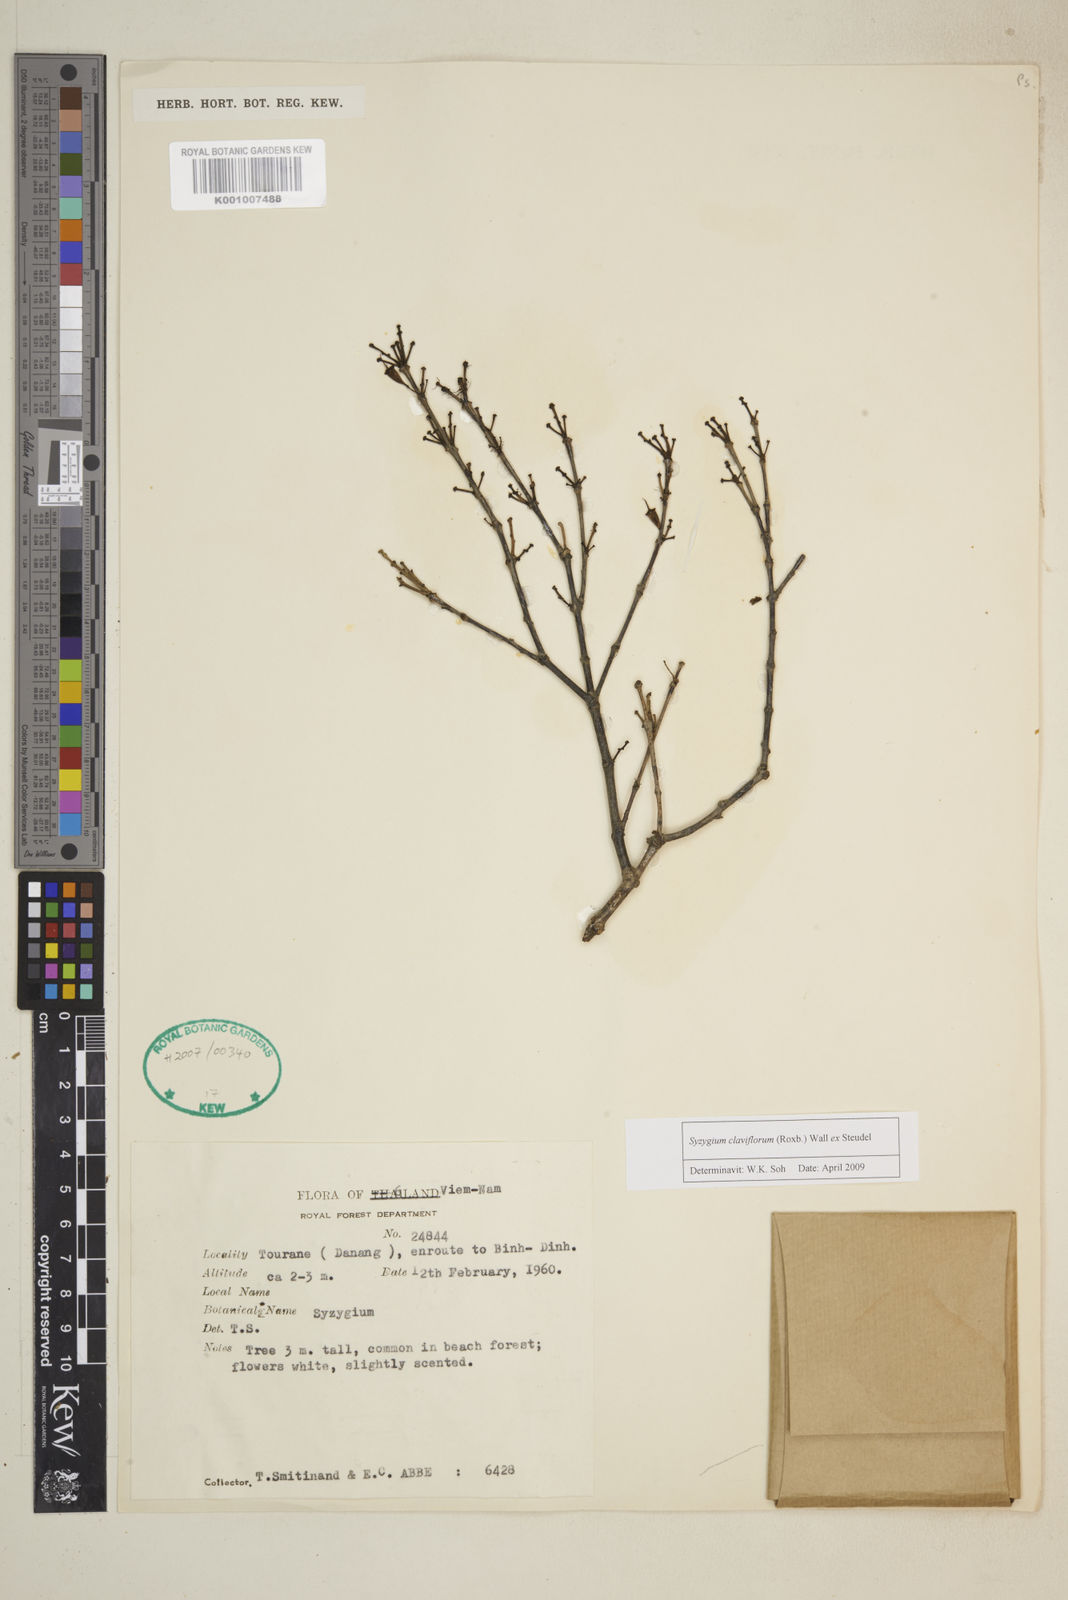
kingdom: Plantae
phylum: Tracheophyta
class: Magnoliopsida
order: Myrtales
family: Myrtaceae
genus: Syzygium
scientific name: Syzygium claviflorum
